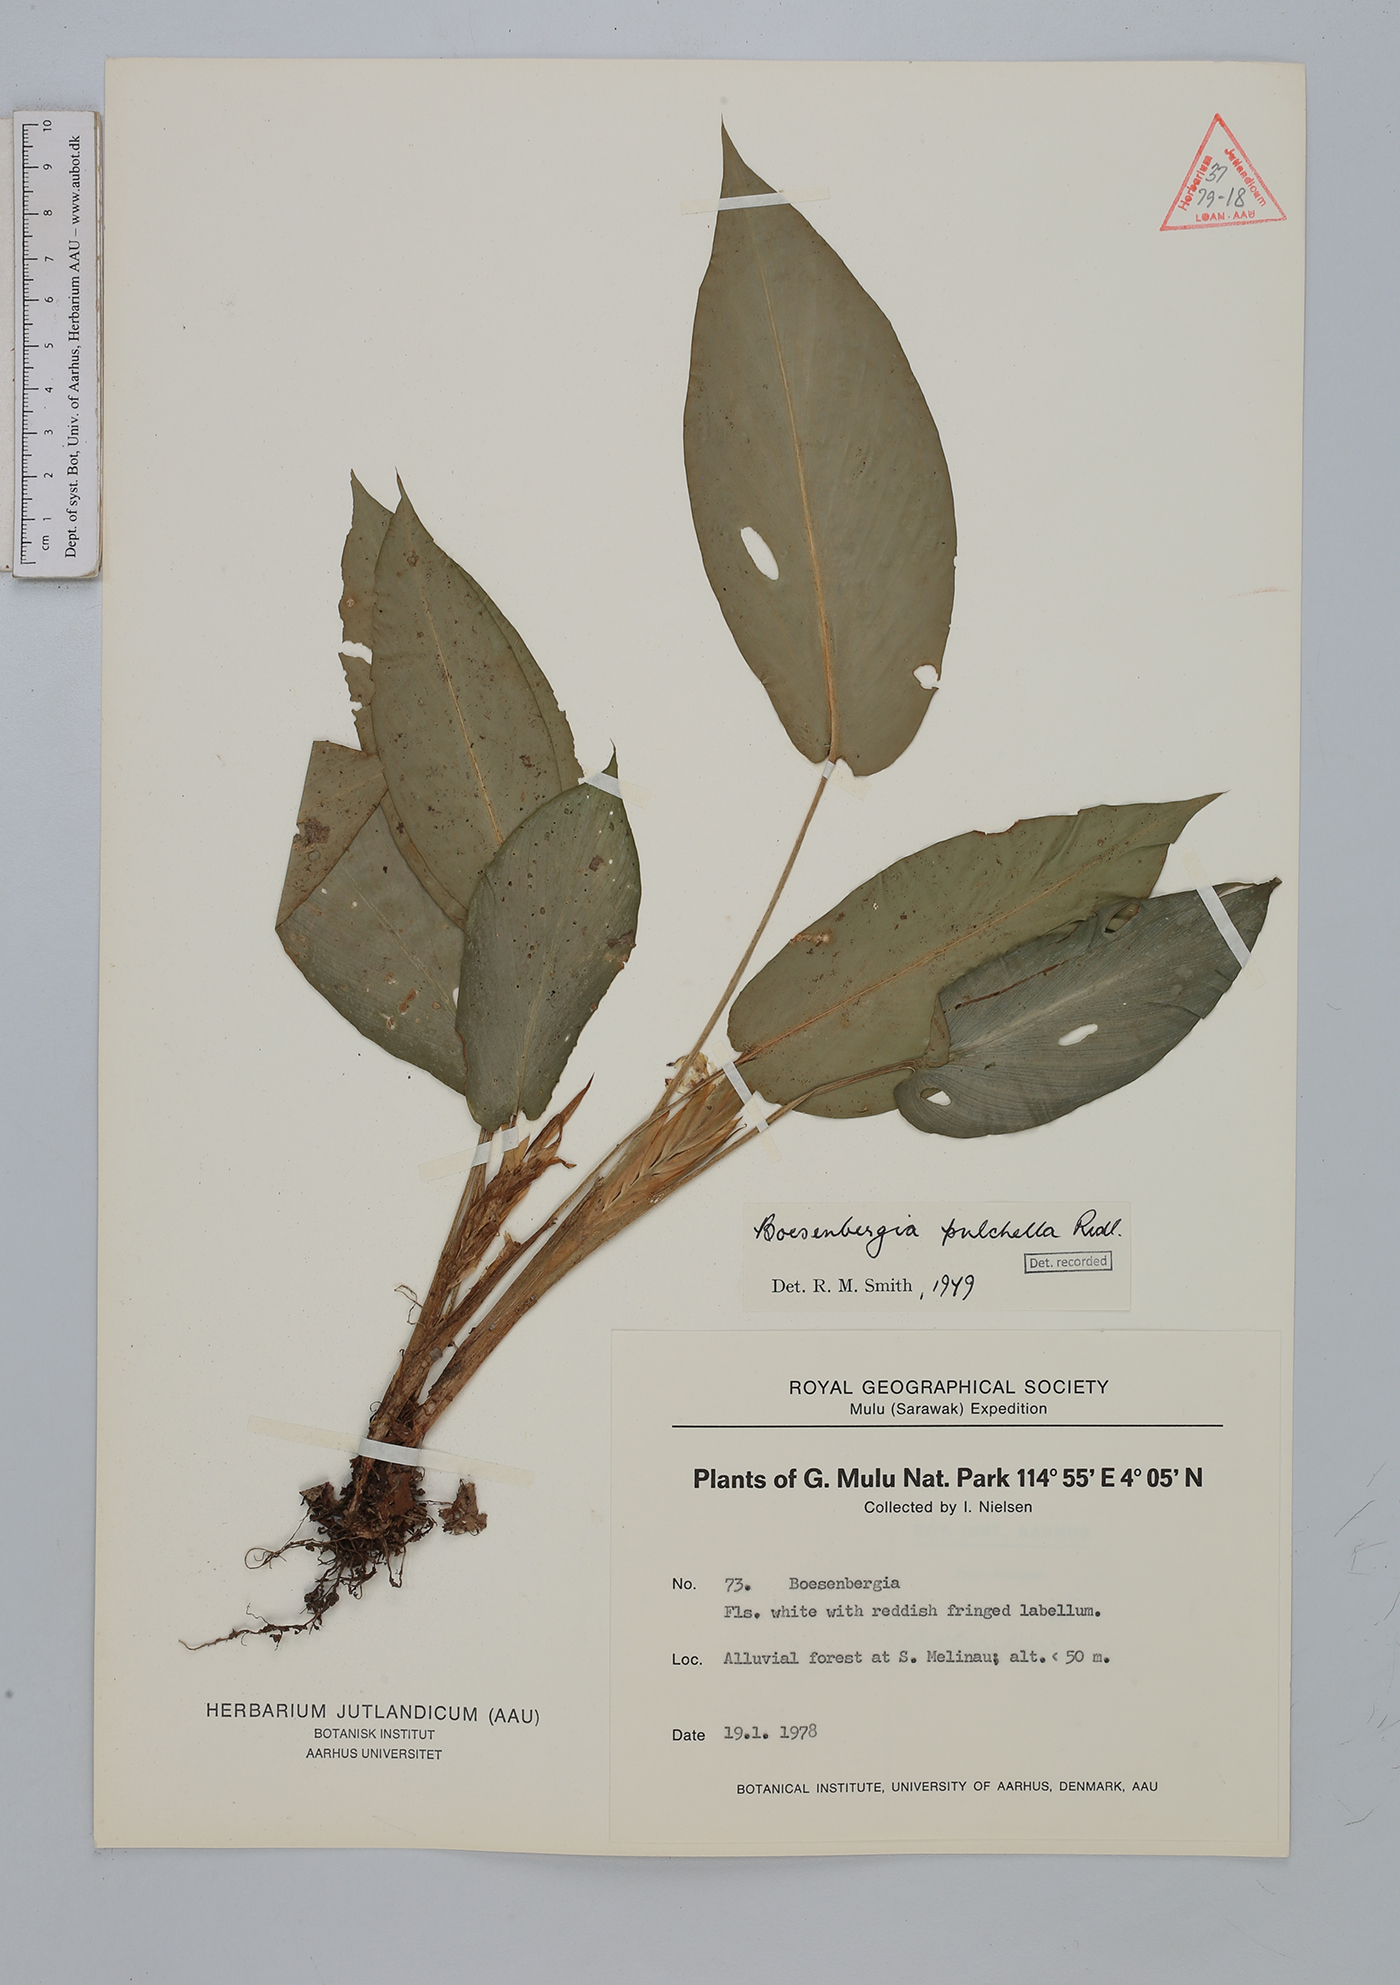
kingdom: Plantae
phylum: Tracheophyta
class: Liliopsida
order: Zingiberales
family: Zingiberaceae
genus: Boesenbergia
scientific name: Boesenbergia pulchella
